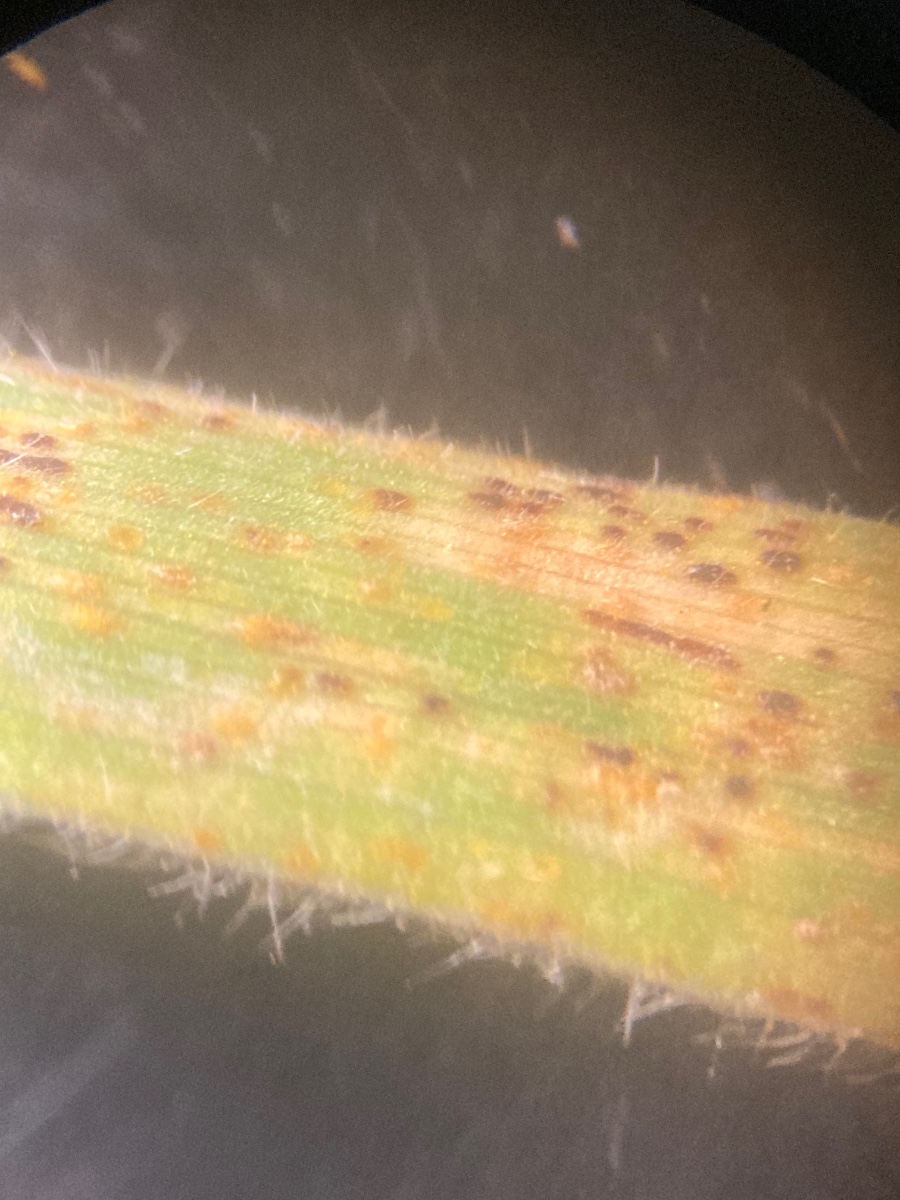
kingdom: Fungi
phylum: Basidiomycota
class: Pucciniomycetes
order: Pucciniales
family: Pucciniaceae
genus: Puccinia
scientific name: Puccinia coronata
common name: Crown rust
